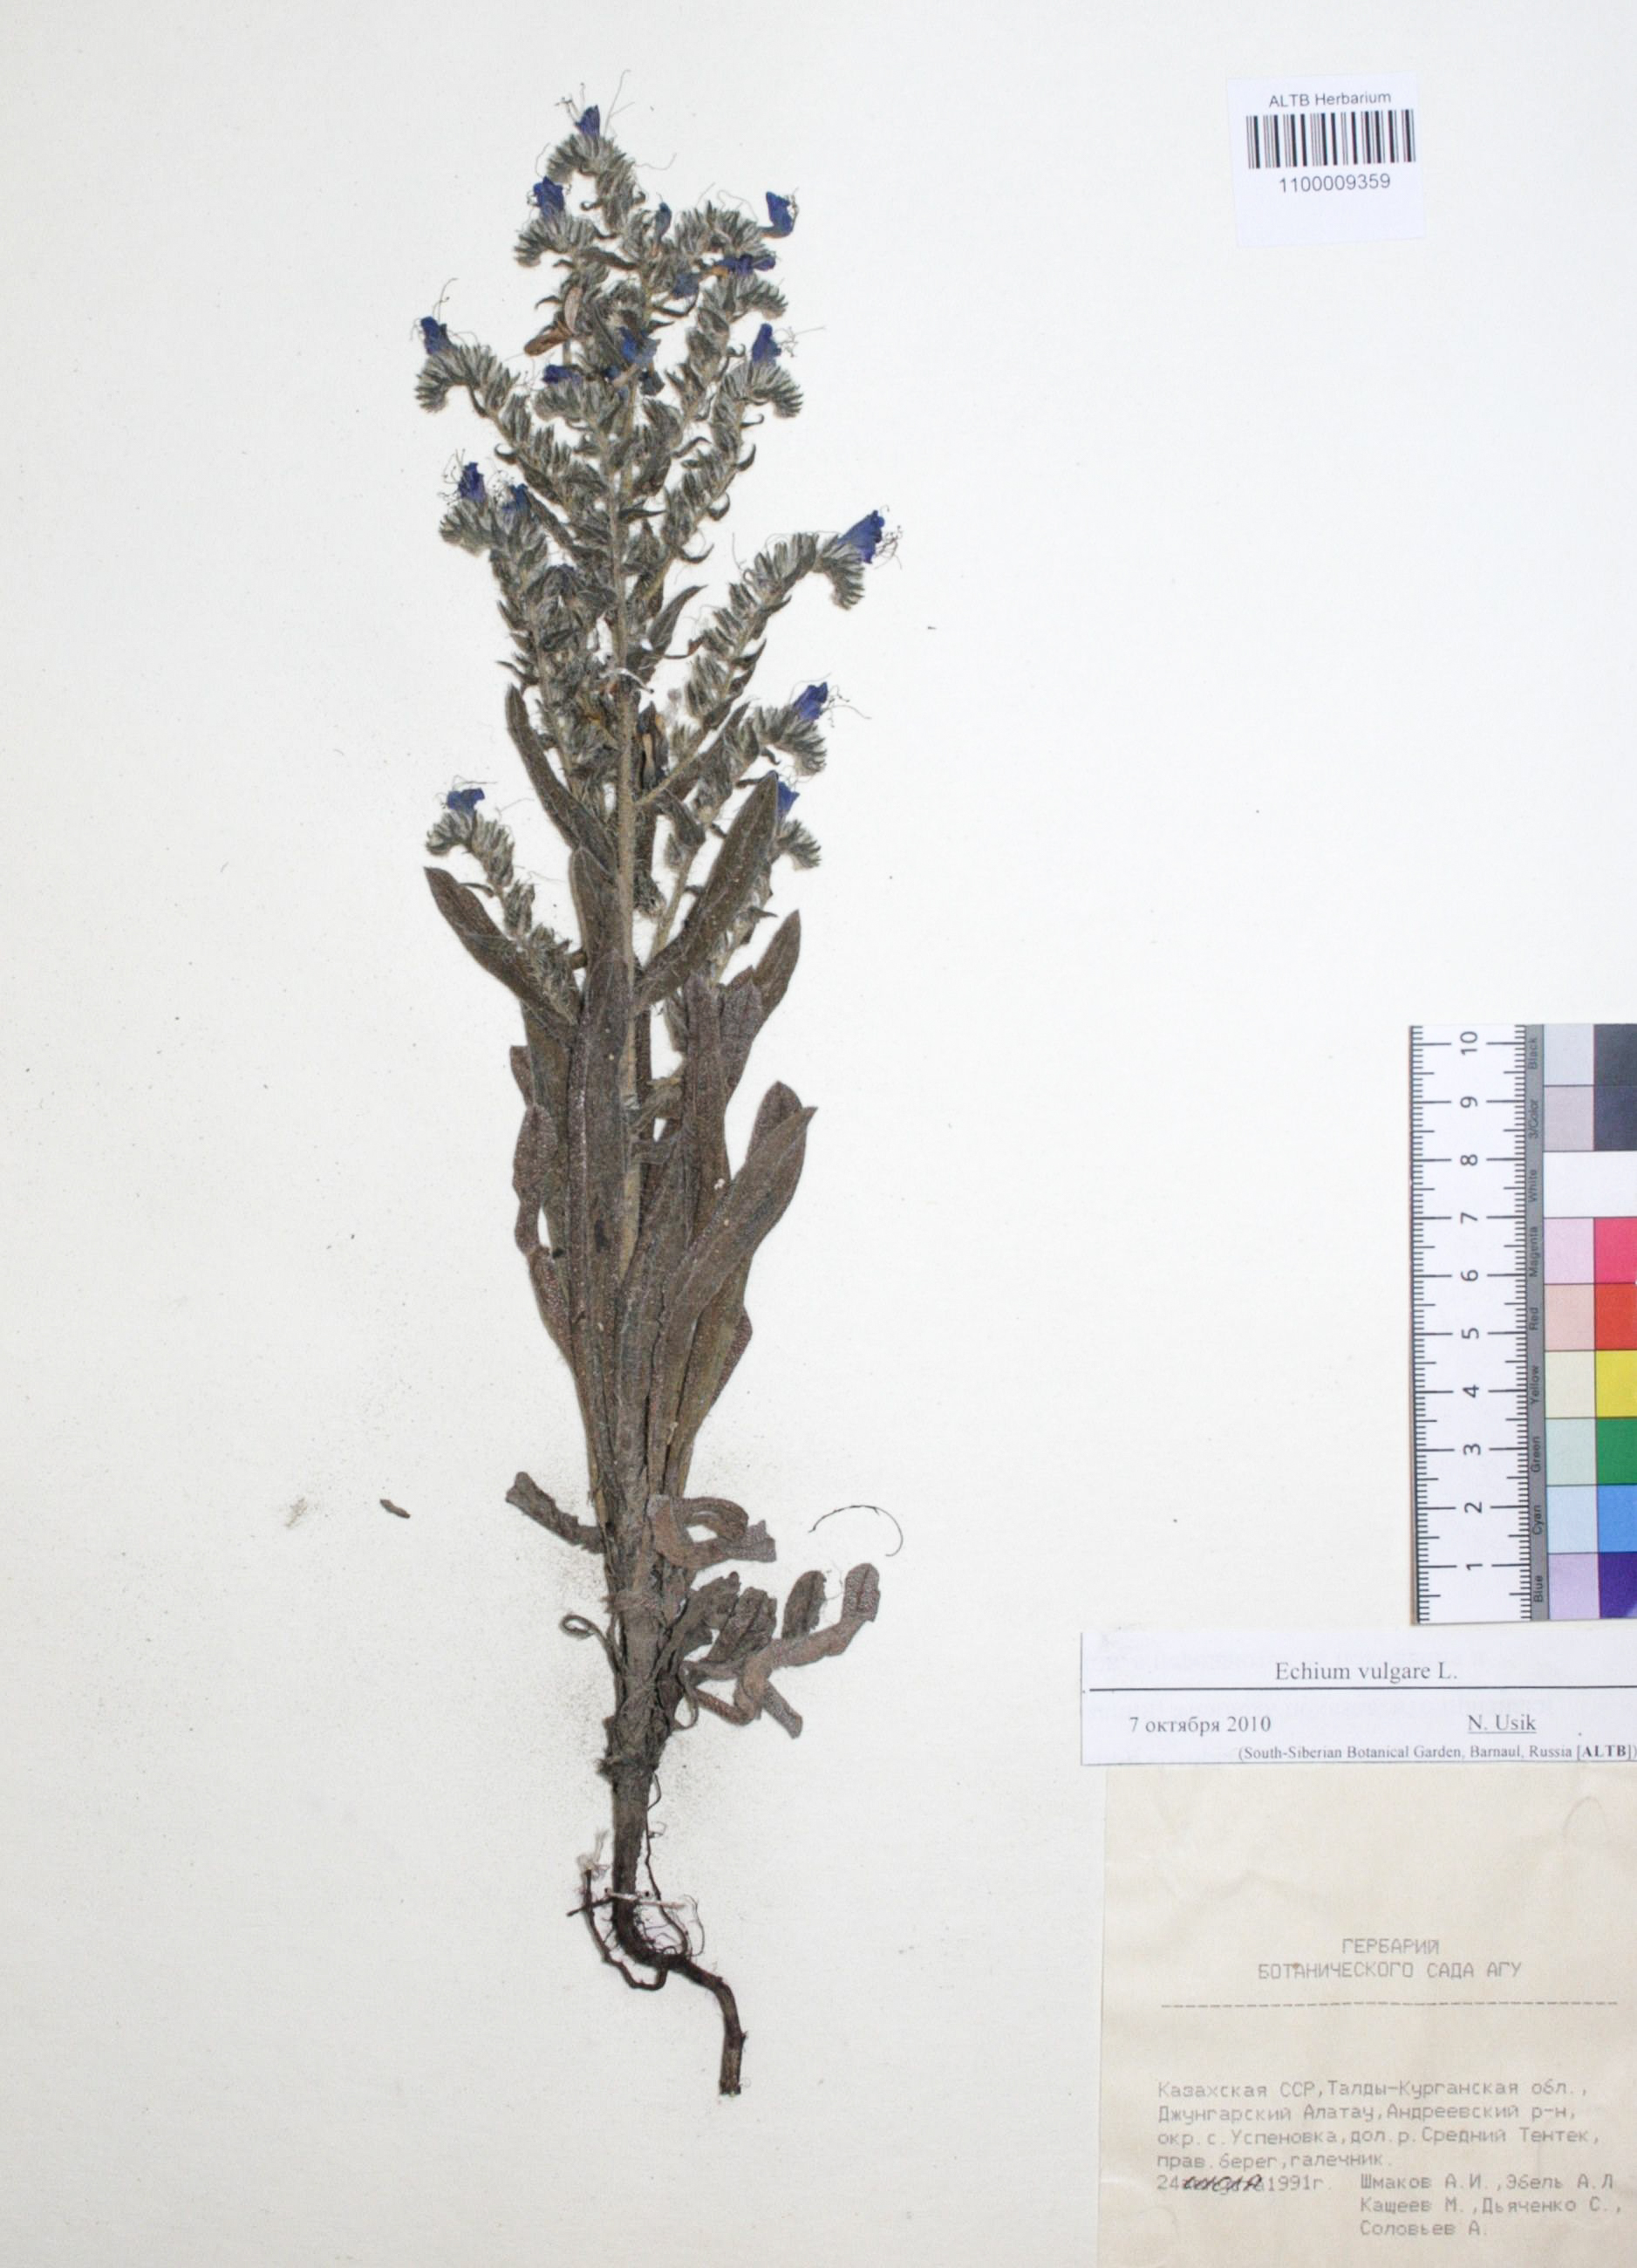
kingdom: Plantae
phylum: Tracheophyta
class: Magnoliopsida
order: Boraginales
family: Boraginaceae
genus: Echium
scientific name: Echium vulgare
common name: Common viper's bugloss
